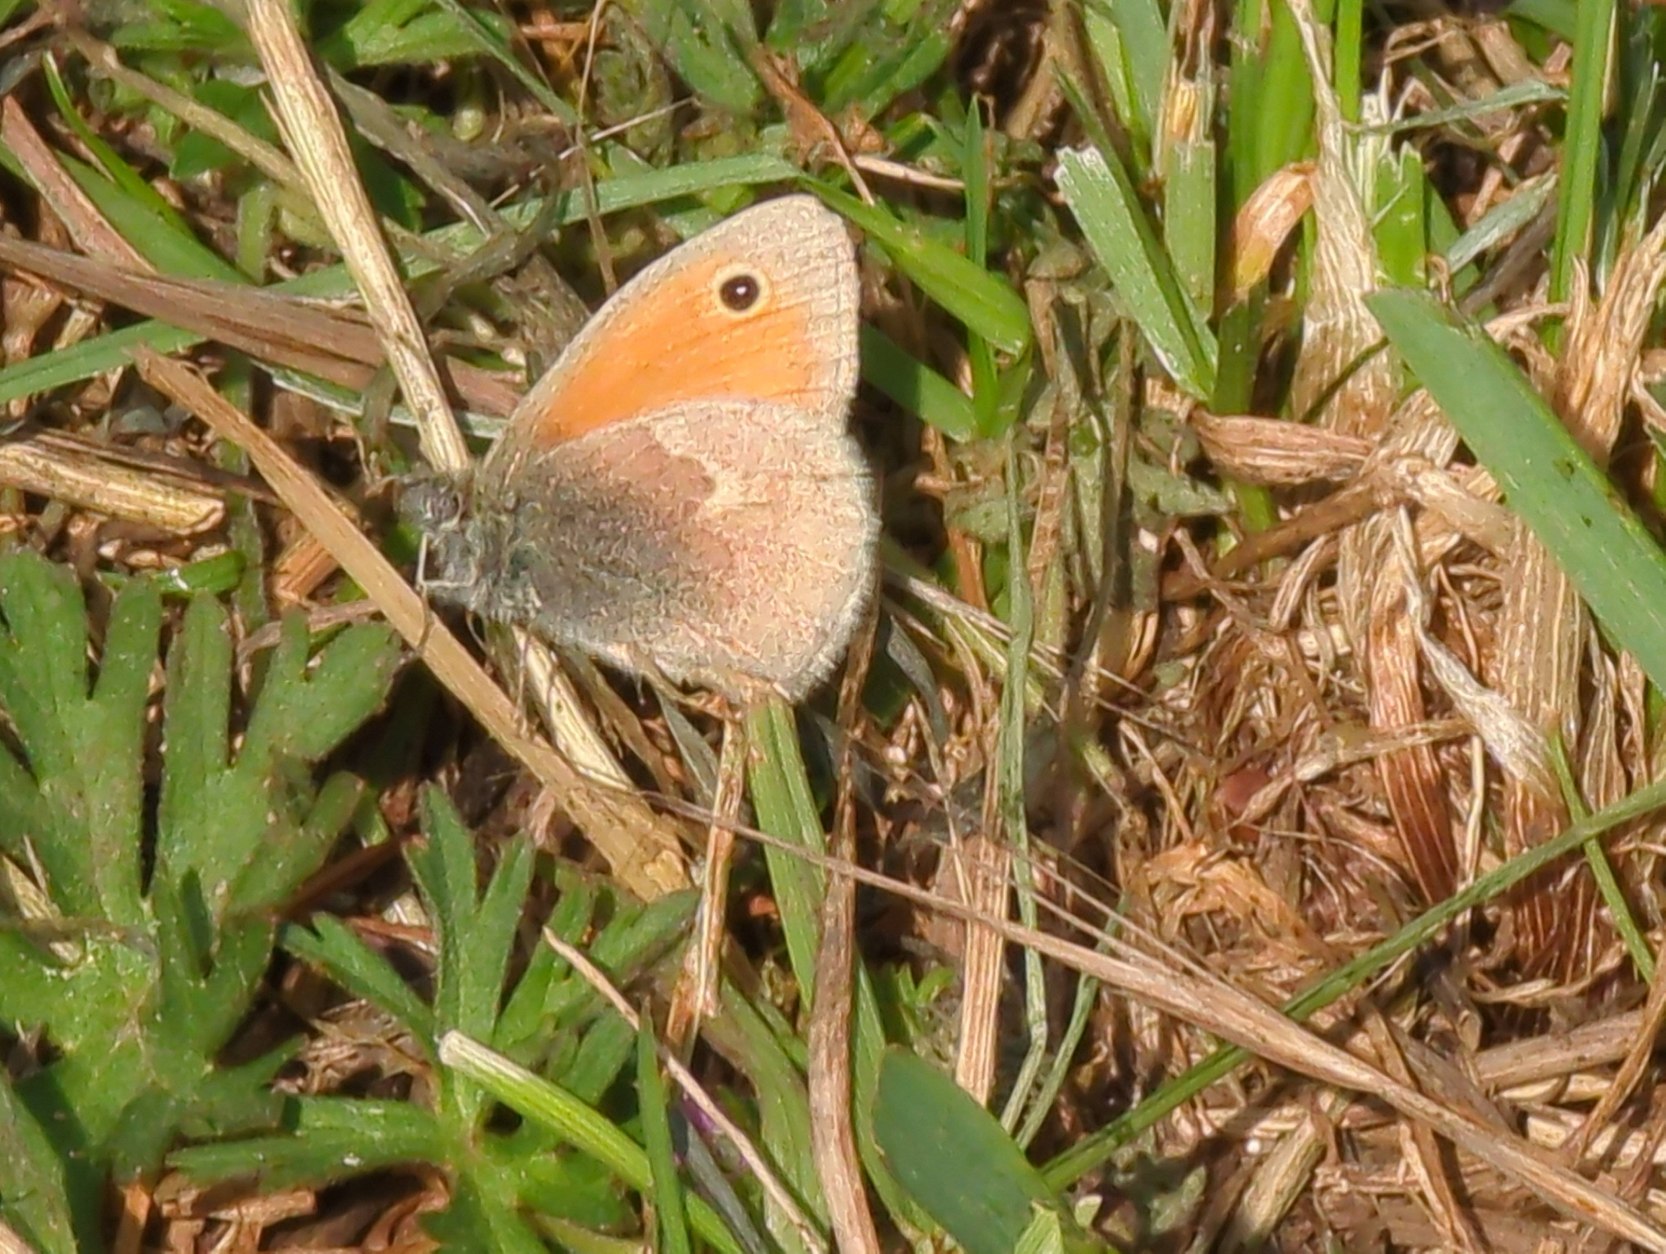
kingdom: Animalia
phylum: Arthropoda
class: Insecta
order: Lepidoptera
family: Nymphalidae
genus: Coenonympha
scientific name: Coenonympha pamphilus
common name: Okkergul randøje
